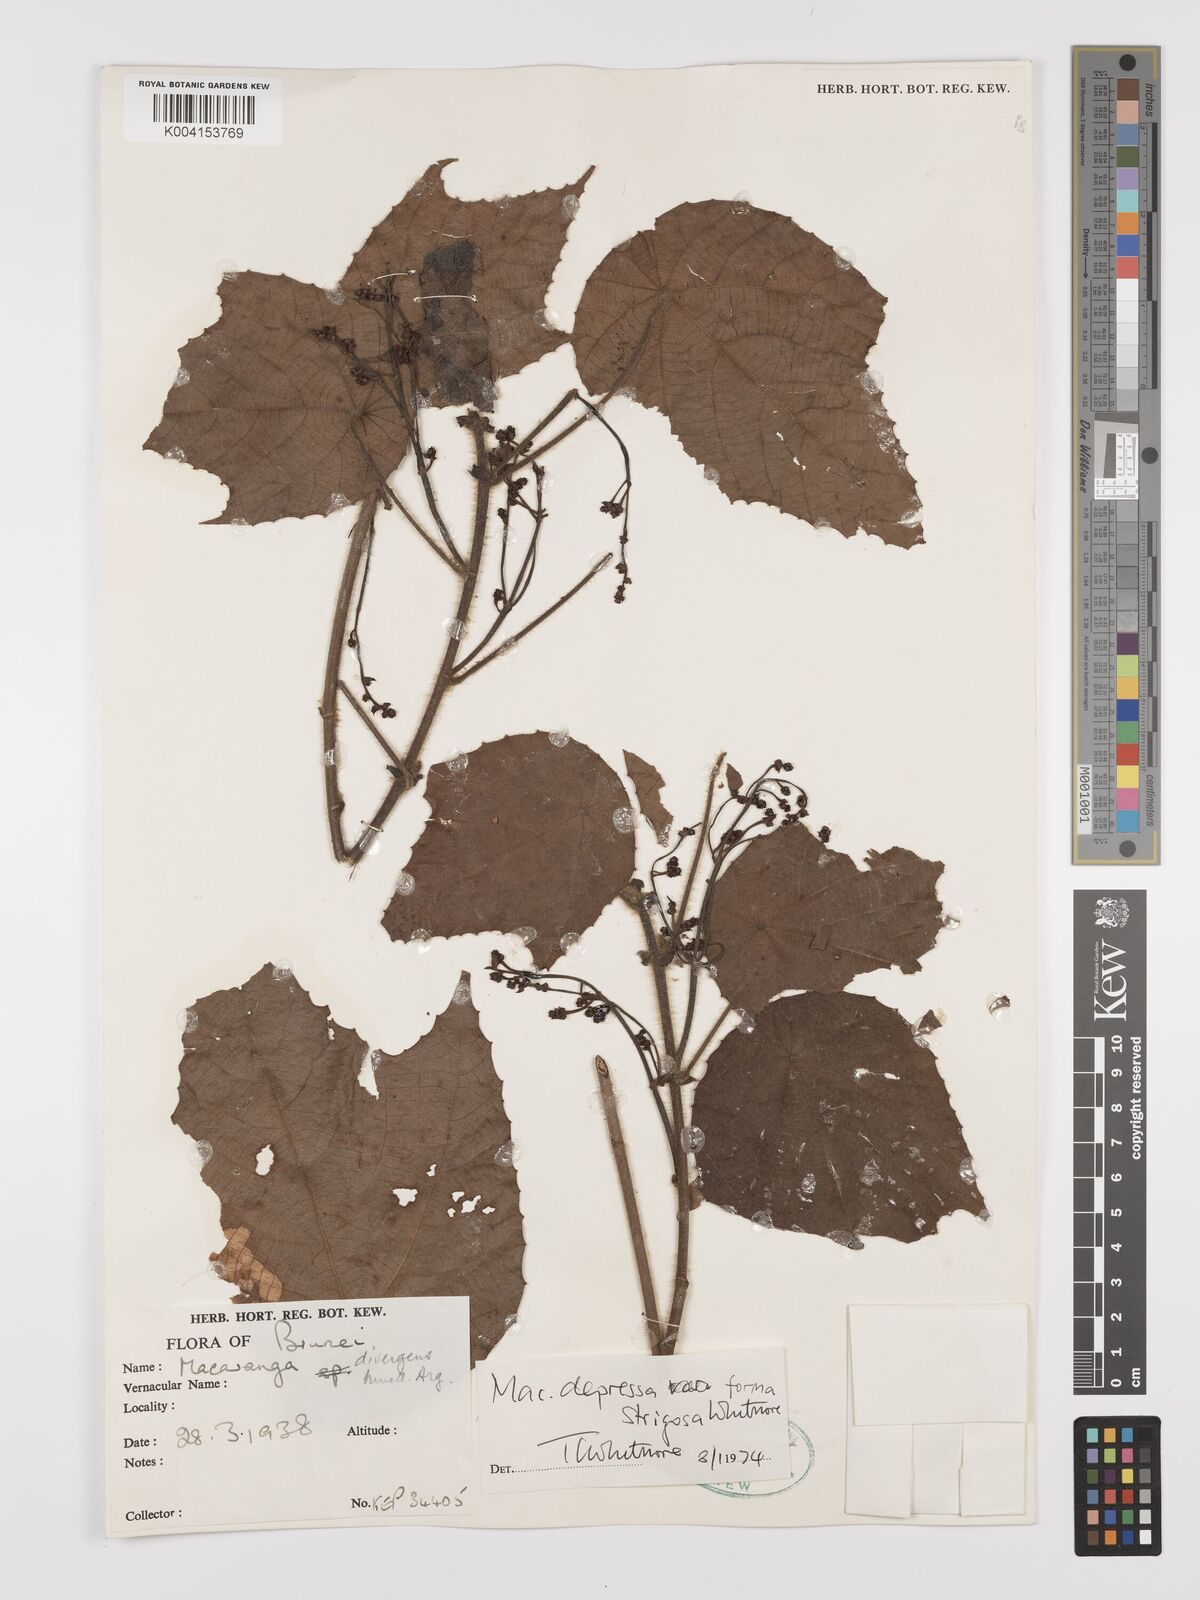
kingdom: Plantae
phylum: Tracheophyta
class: Magnoliopsida
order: Malpighiales
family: Euphorbiaceae
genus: Macaranga
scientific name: Macaranga depressa
